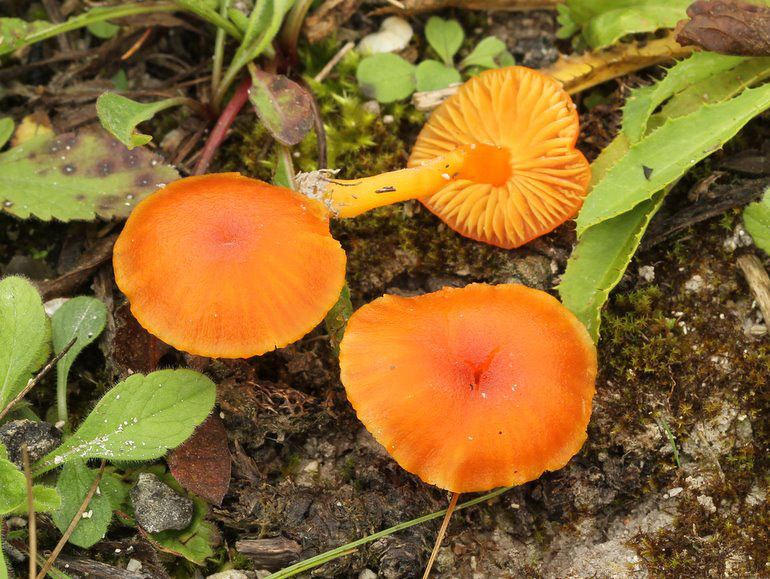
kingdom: Fungi
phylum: Basidiomycota
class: Agaricomycetes
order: Agaricales
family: Hygrophoraceae
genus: Hygrocybe
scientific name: Hygrocybe calciphila
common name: kalk-vokshat
